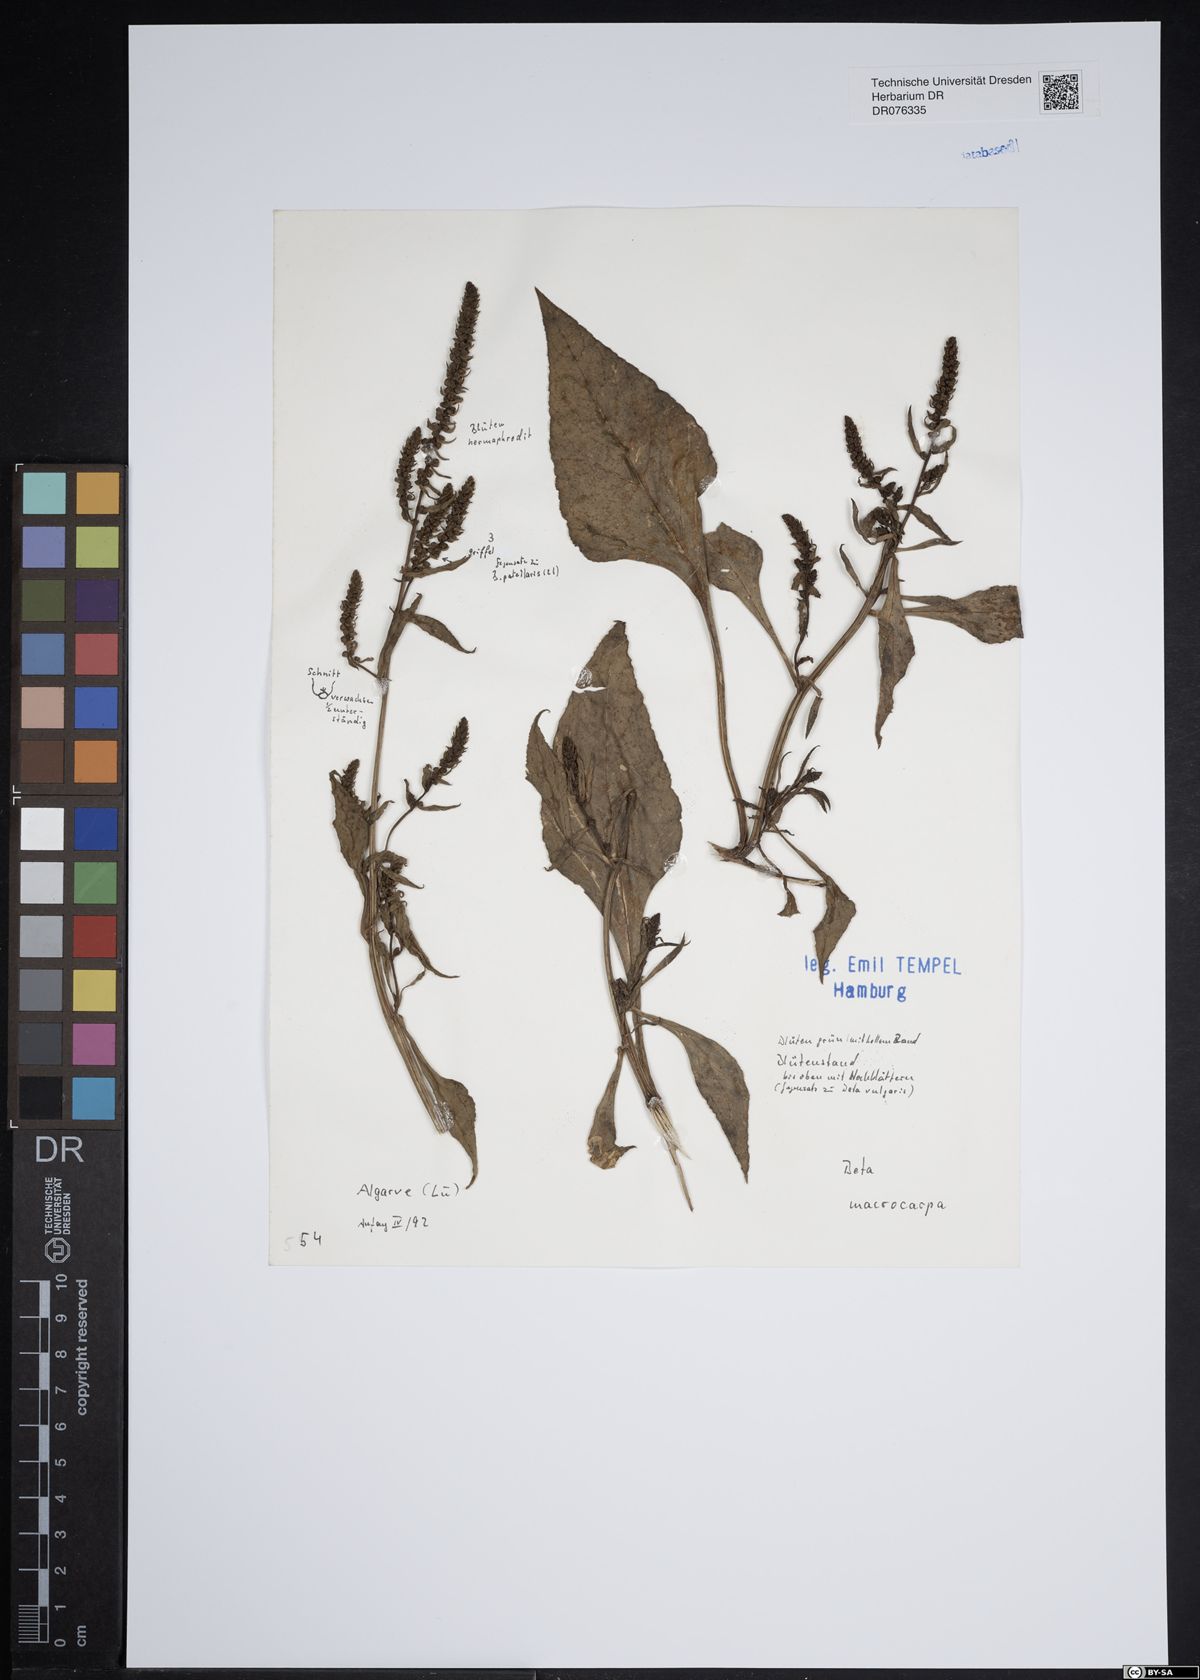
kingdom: Plantae
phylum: Tracheophyta
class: Magnoliopsida
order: Caryophyllales
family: Amaranthaceae
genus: Beta
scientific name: Beta macrocarpa
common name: Beet
